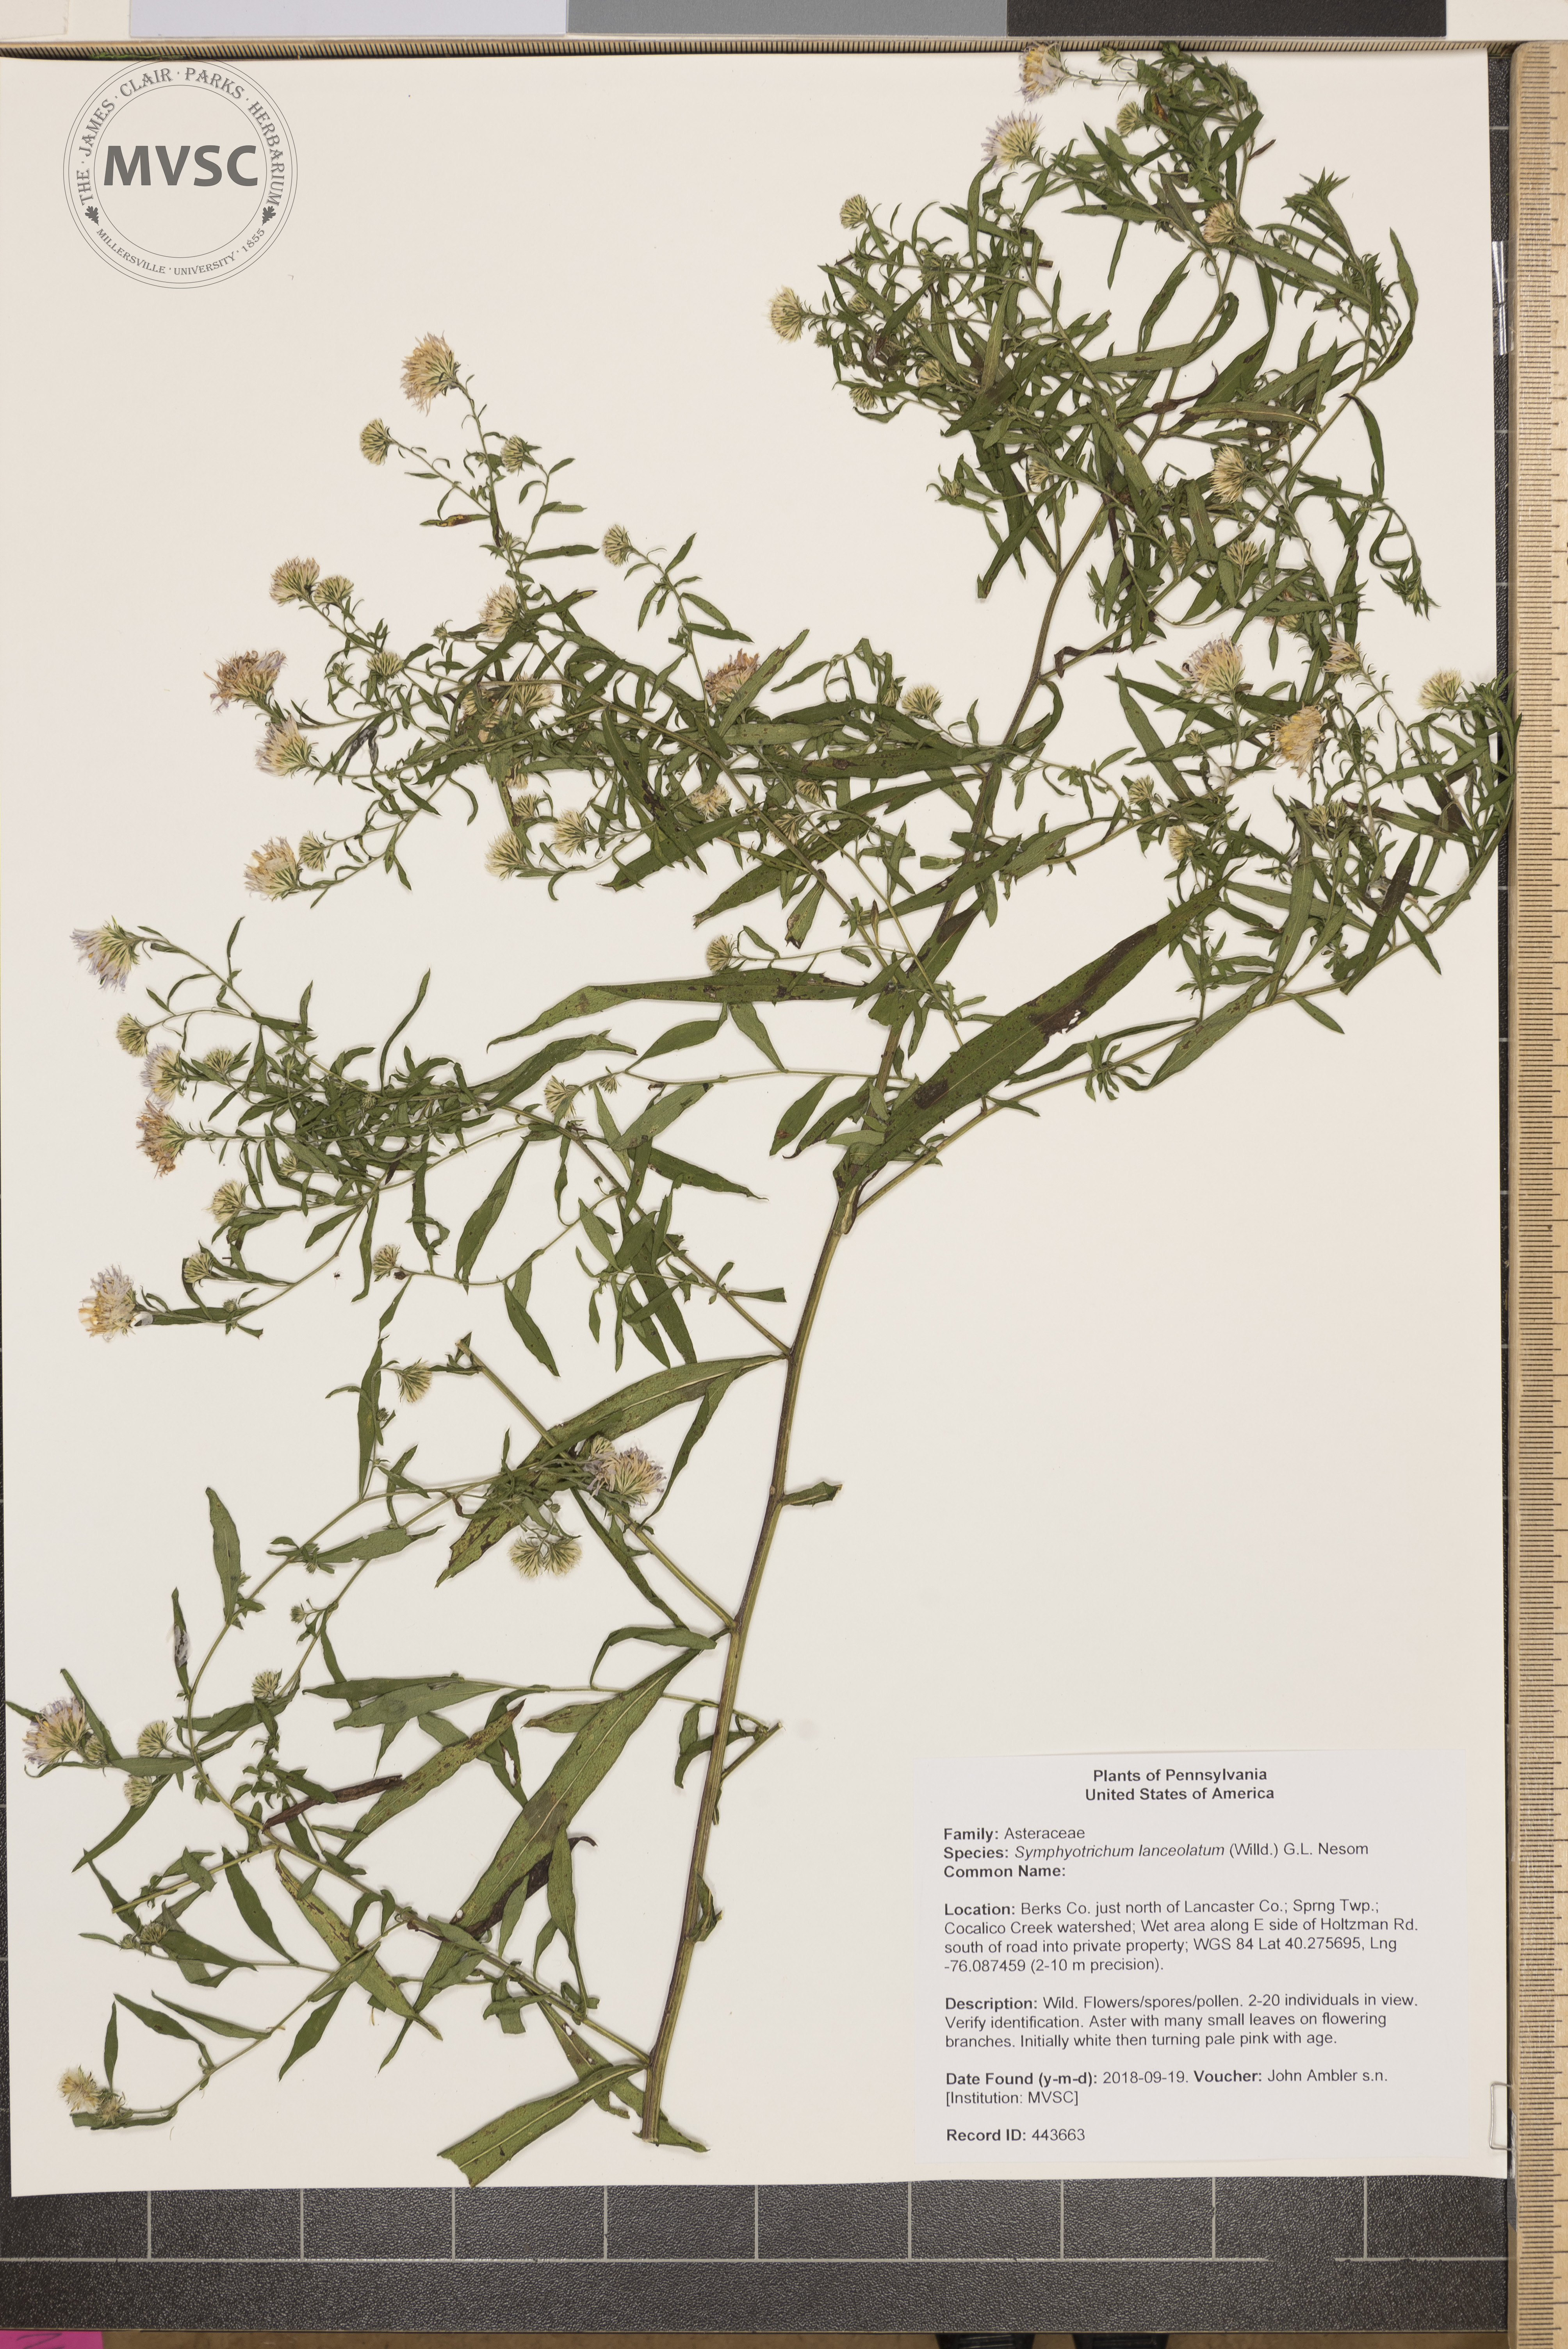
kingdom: Plantae
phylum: Tracheophyta
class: Magnoliopsida
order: Asterales
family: Asteraceae
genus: Symphyotrichum
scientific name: Symphyotrichum lanceolatum
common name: Panicled aster
